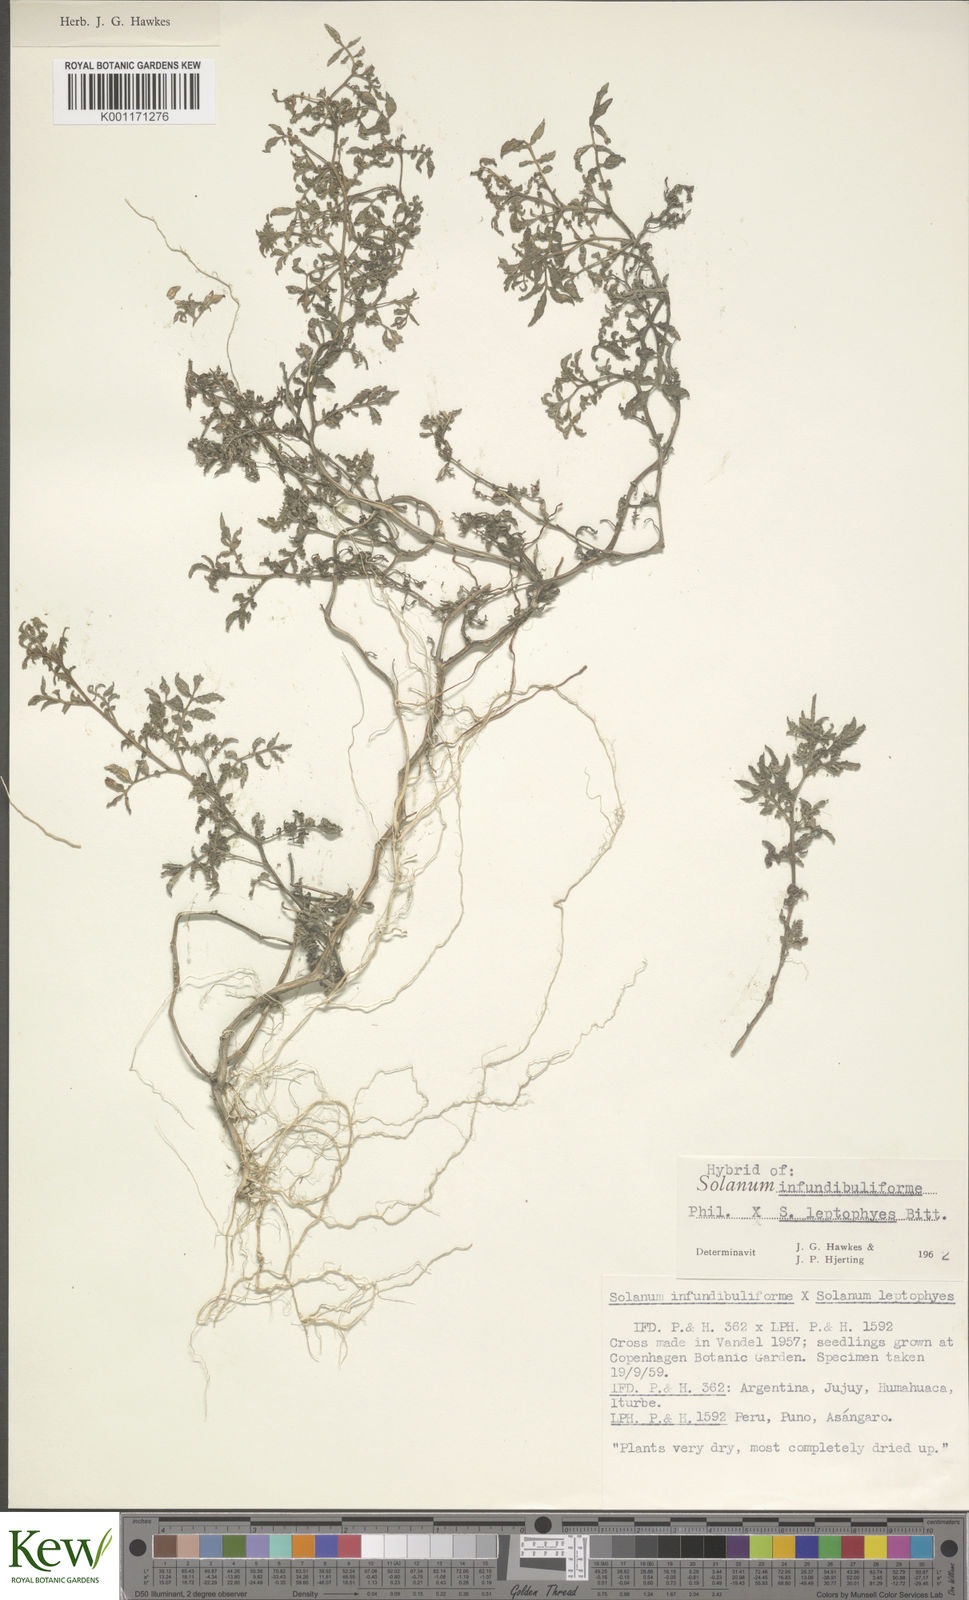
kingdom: Plantae
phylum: Tracheophyta
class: Magnoliopsida
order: Solanales
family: Solanaceae
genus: Solanum
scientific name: Solanum infundibuliforme
